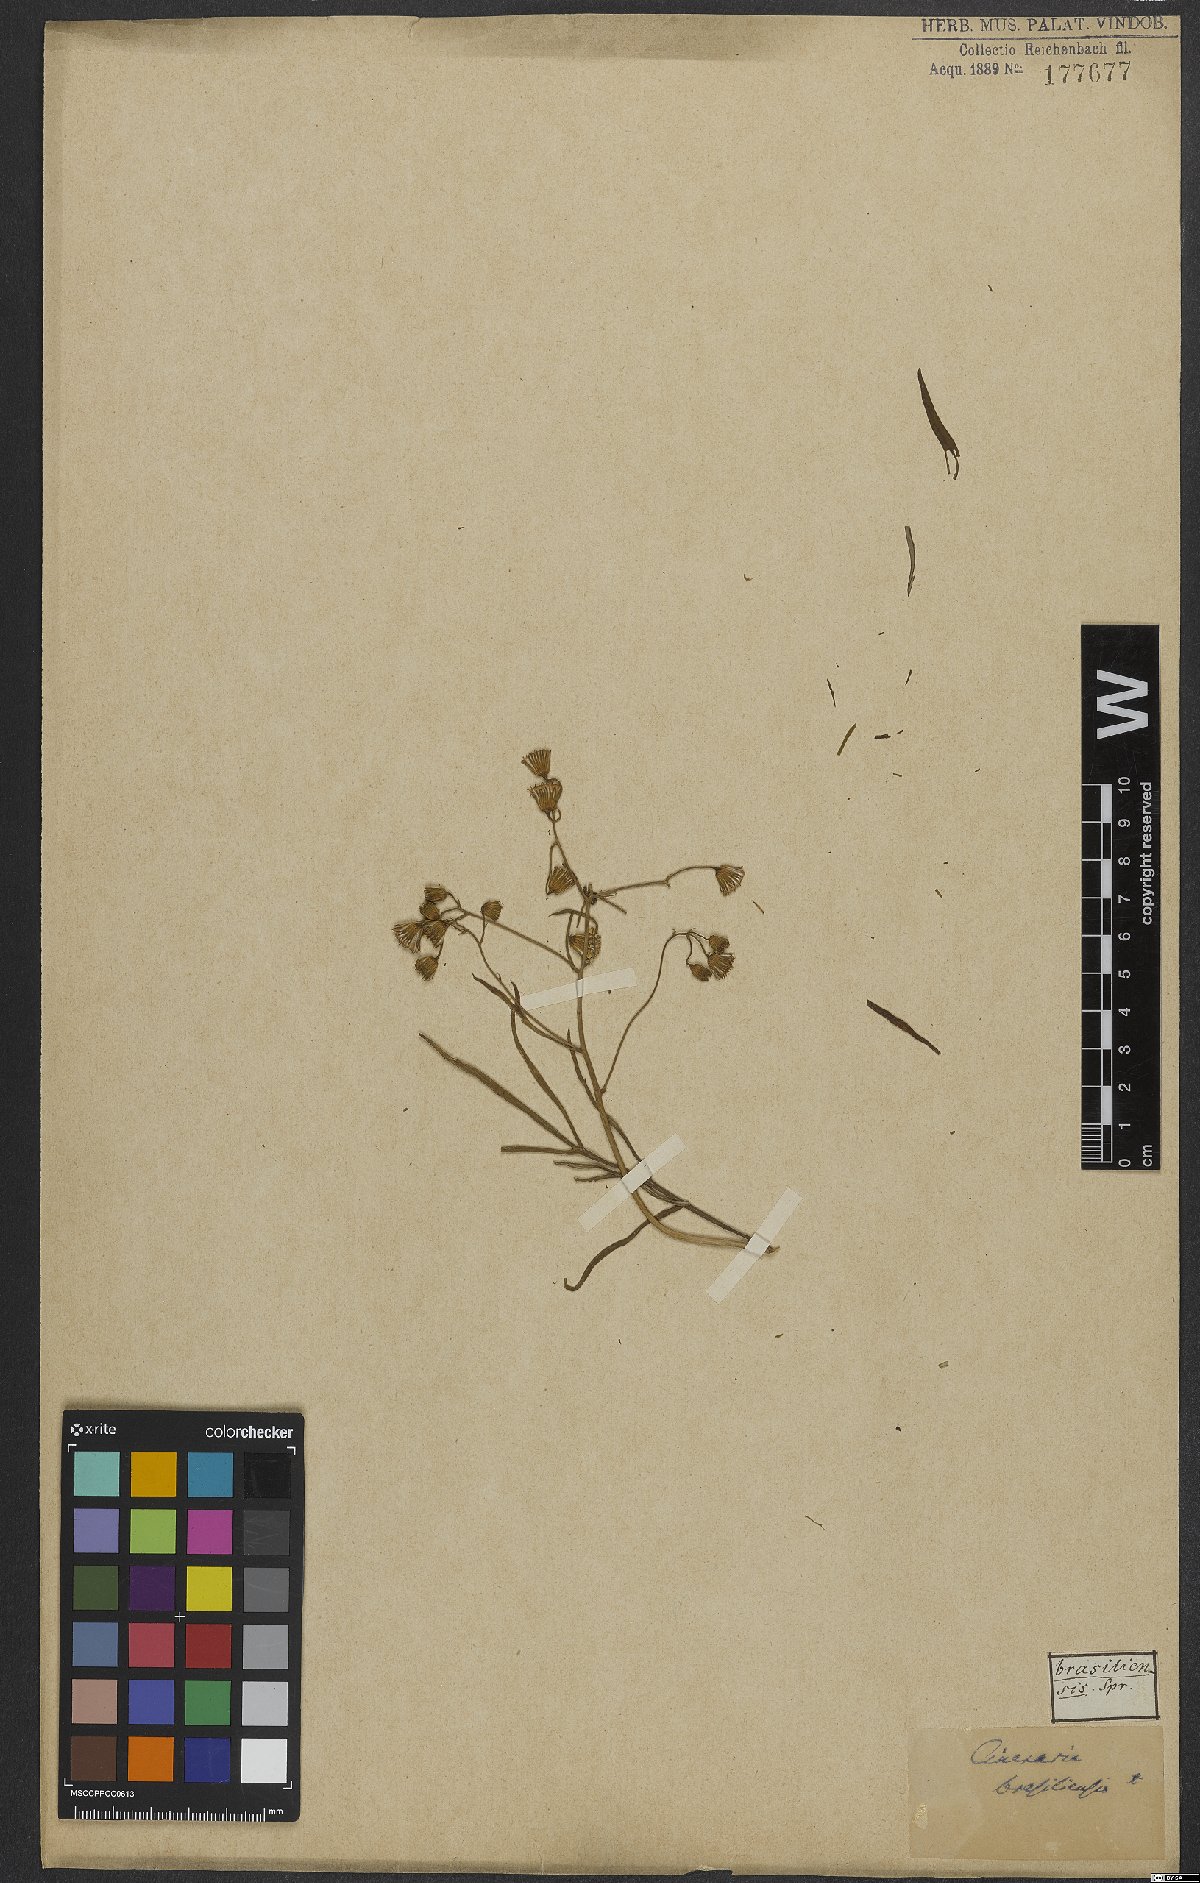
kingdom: Plantae
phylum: Tracheophyta
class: Magnoliopsida
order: Asterales
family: Asteraceae
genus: Senecio
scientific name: Senecio brasiliensis
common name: Hemp-leaf ragwort
